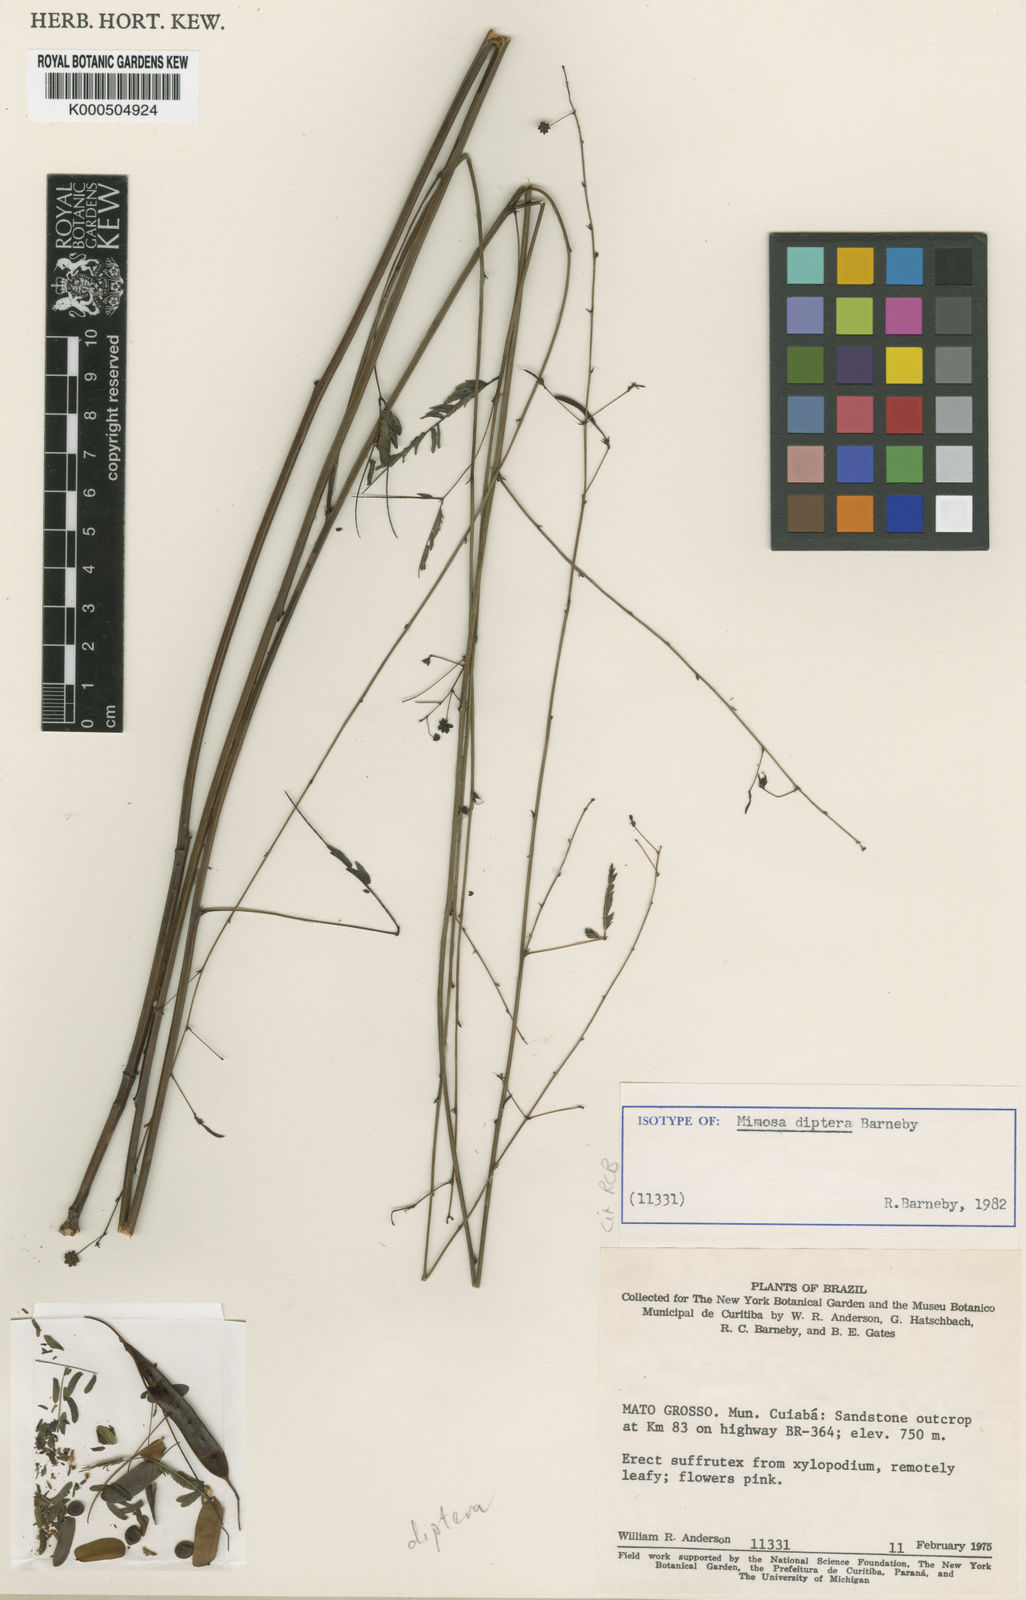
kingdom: Plantae
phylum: Tracheophyta
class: Magnoliopsida
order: Fabales
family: Fabaceae
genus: Mimosa
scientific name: Mimosa cuiabensis
